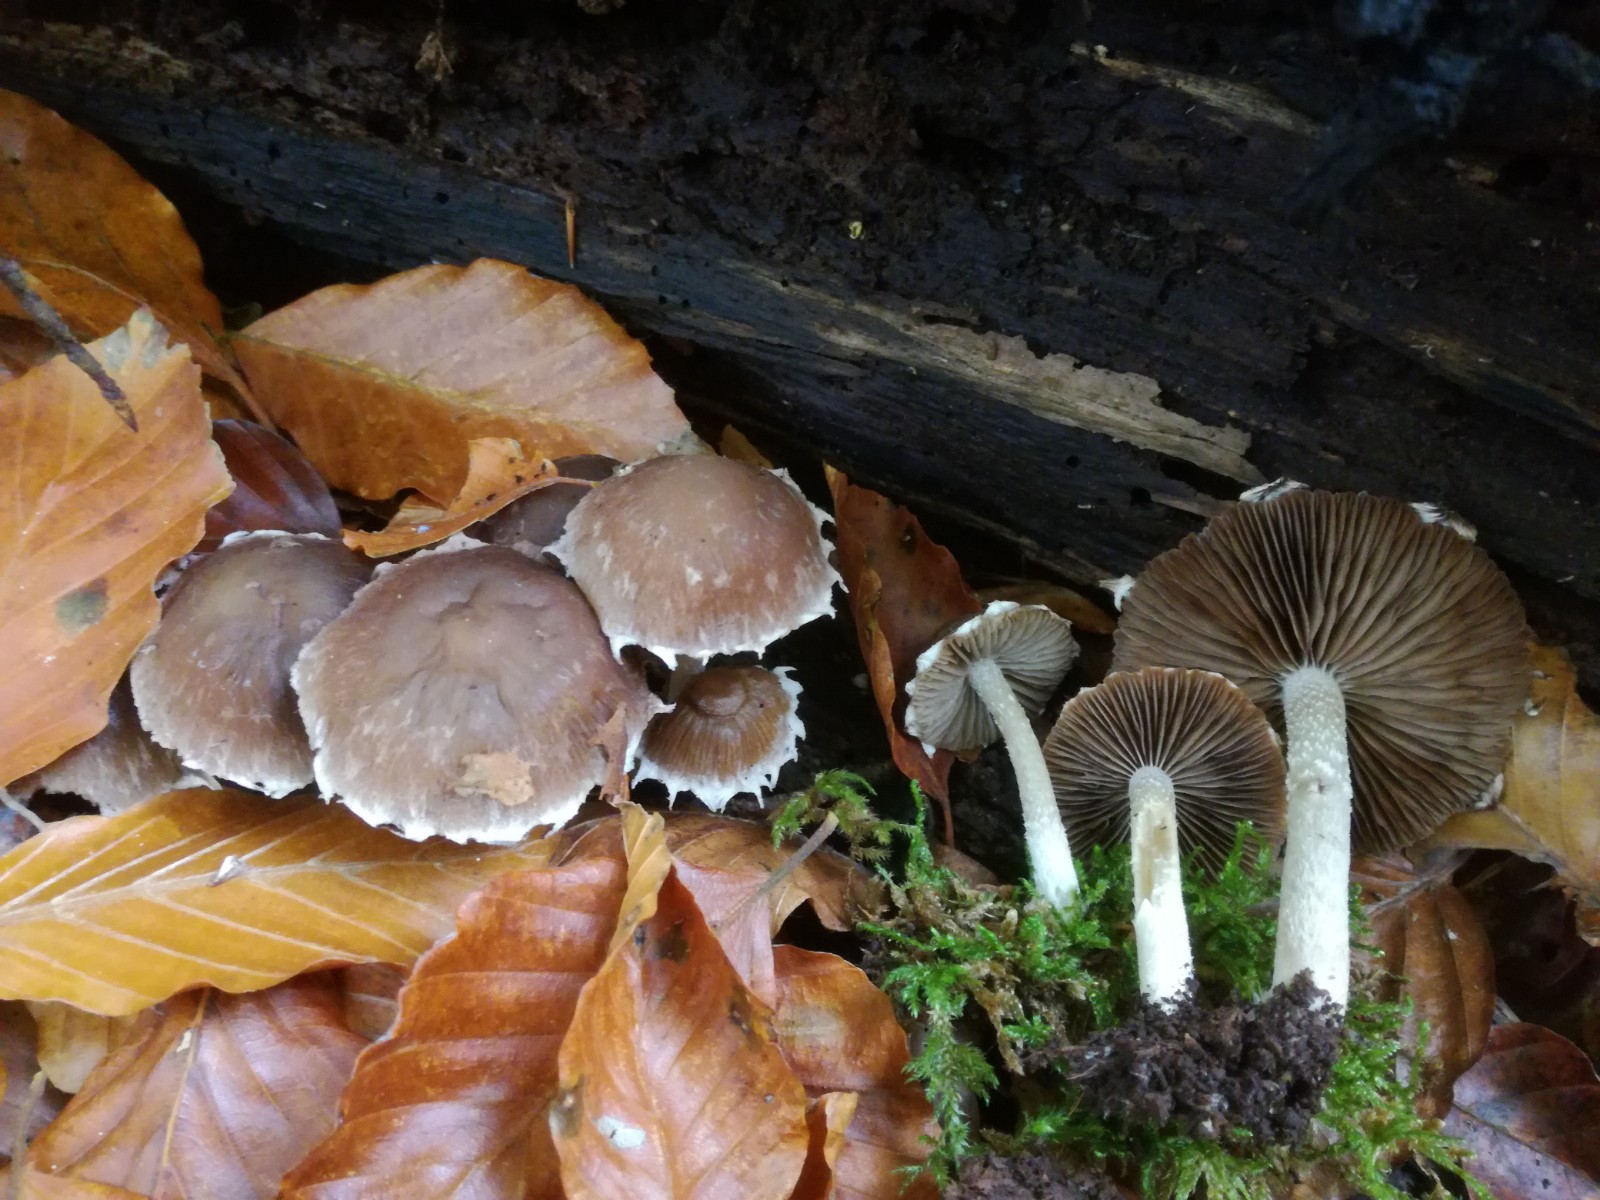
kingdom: Fungi
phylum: Basidiomycota
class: Agaricomycetes
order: Agaricales
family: Psathyrellaceae
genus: Psathyrella
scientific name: Psathyrella spintrigeroides
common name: tandet mørkhat
